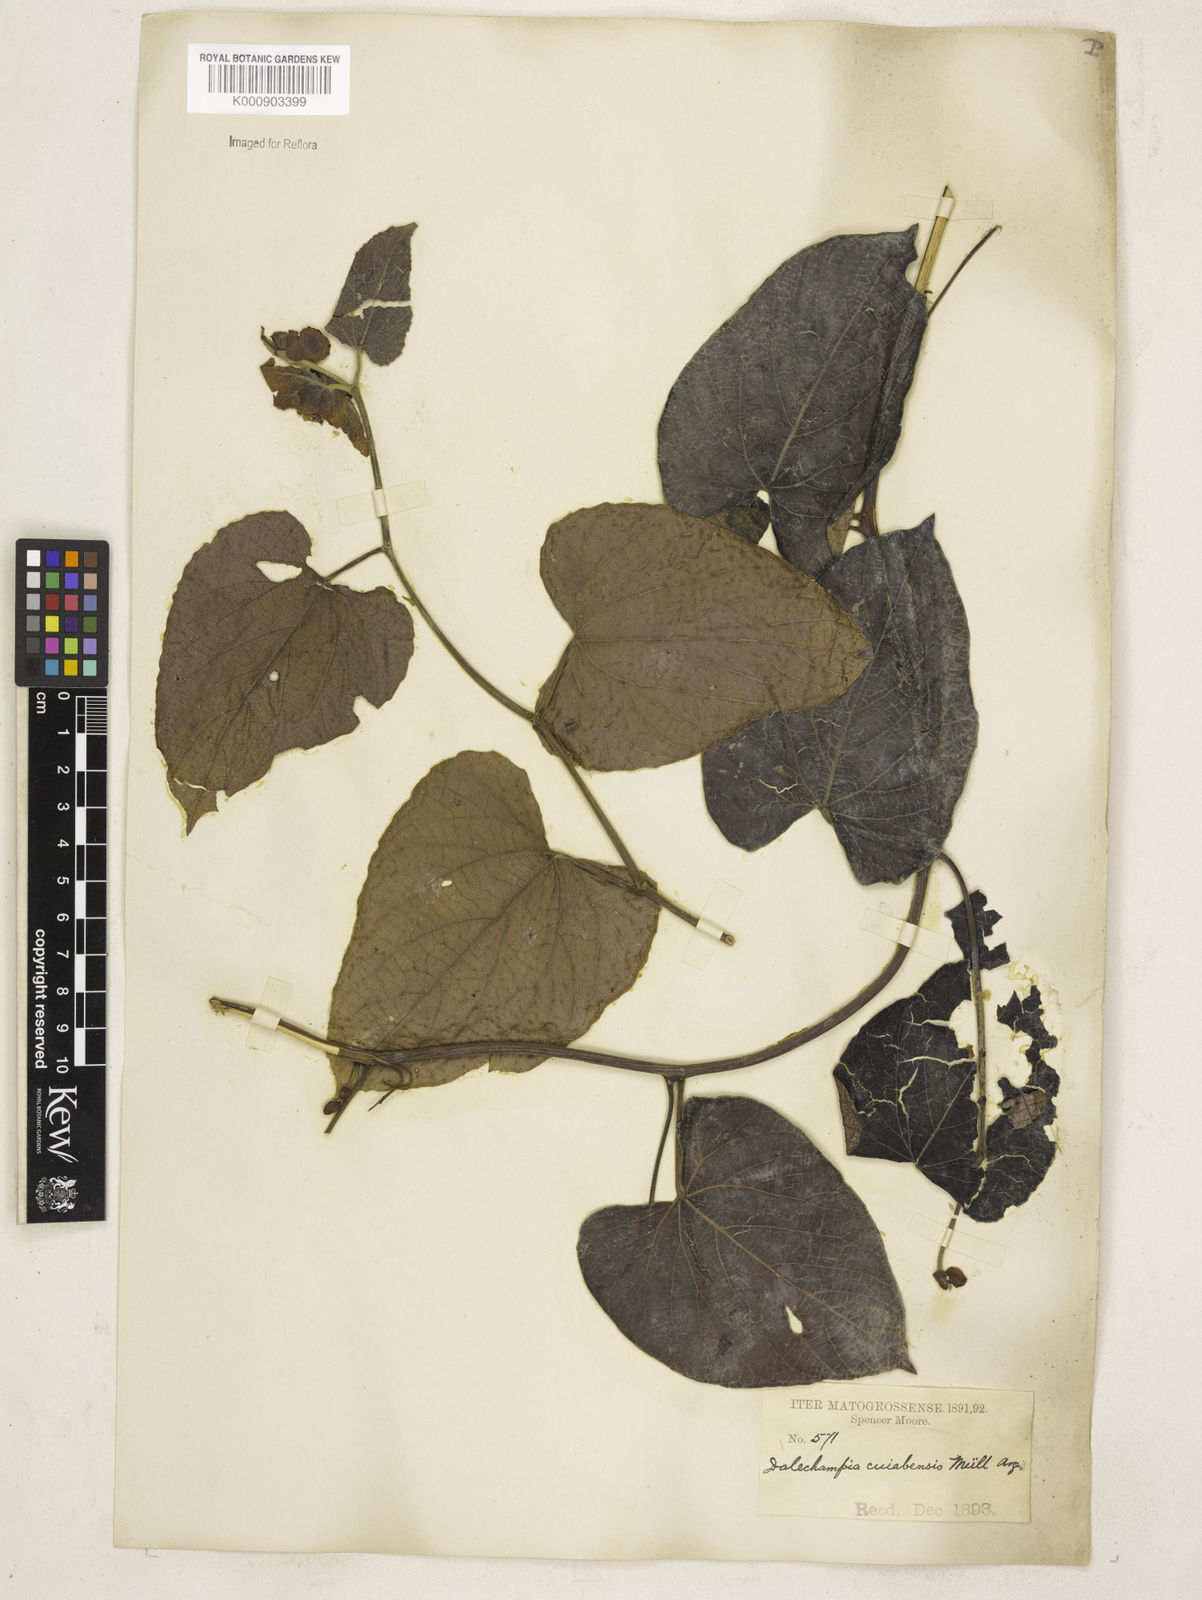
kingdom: Plantae
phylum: Tracheophyta
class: Magnoliopsida
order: Malpighiales
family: Euphorbiaceae
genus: Dalechampia
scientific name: Dalechampia
